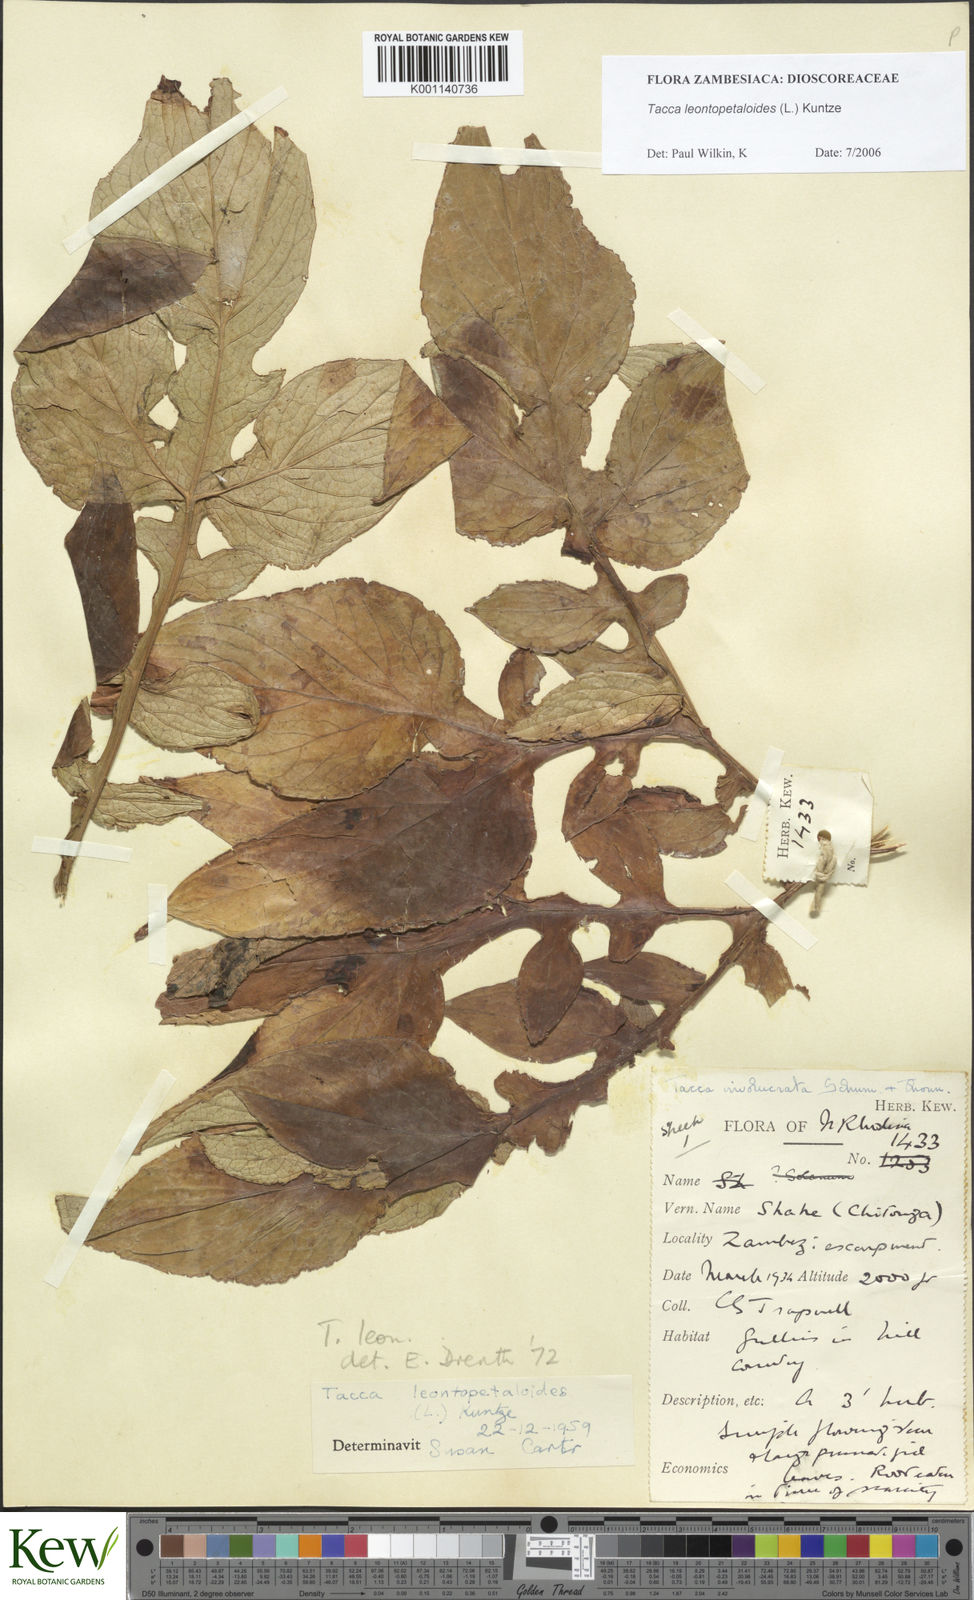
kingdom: Plantae
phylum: Tracheophyta
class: Liliopsida
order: Dioscoreales
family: Dioscoreaceae
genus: Tacca
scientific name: Tacca leontopetaloides
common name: Arrowroot
